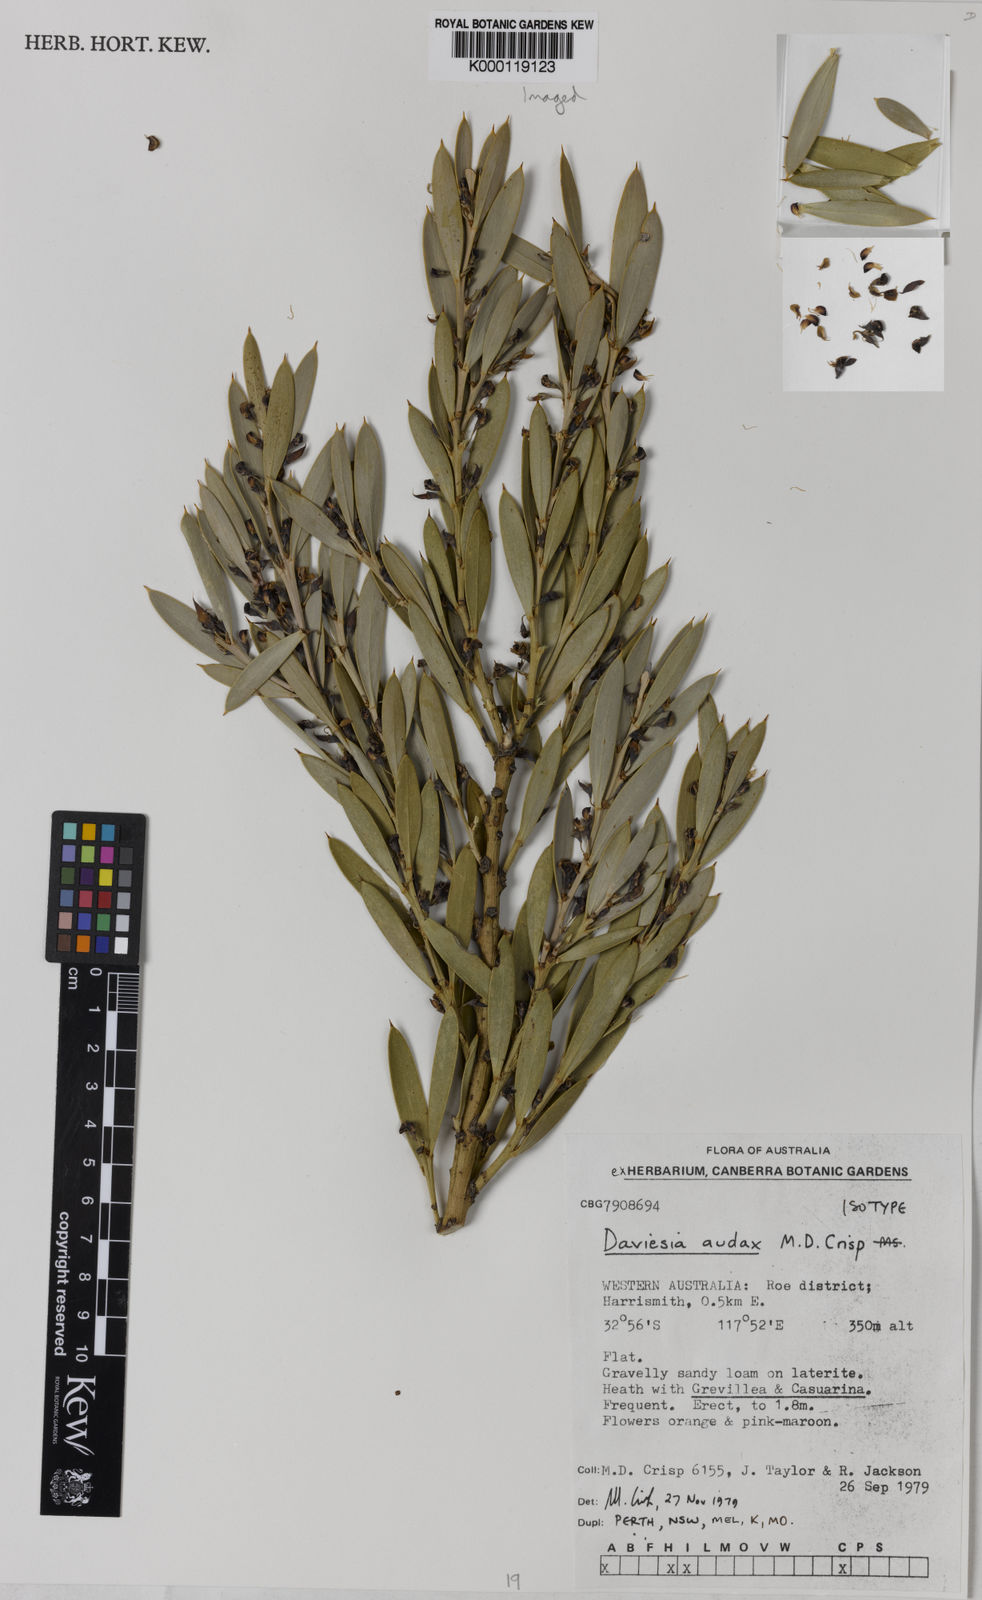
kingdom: Plantae
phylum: Tracheophyta
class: Magnoliopsida
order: Fabales
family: Fabaceae
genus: Daviesia
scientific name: Daviesia audax
